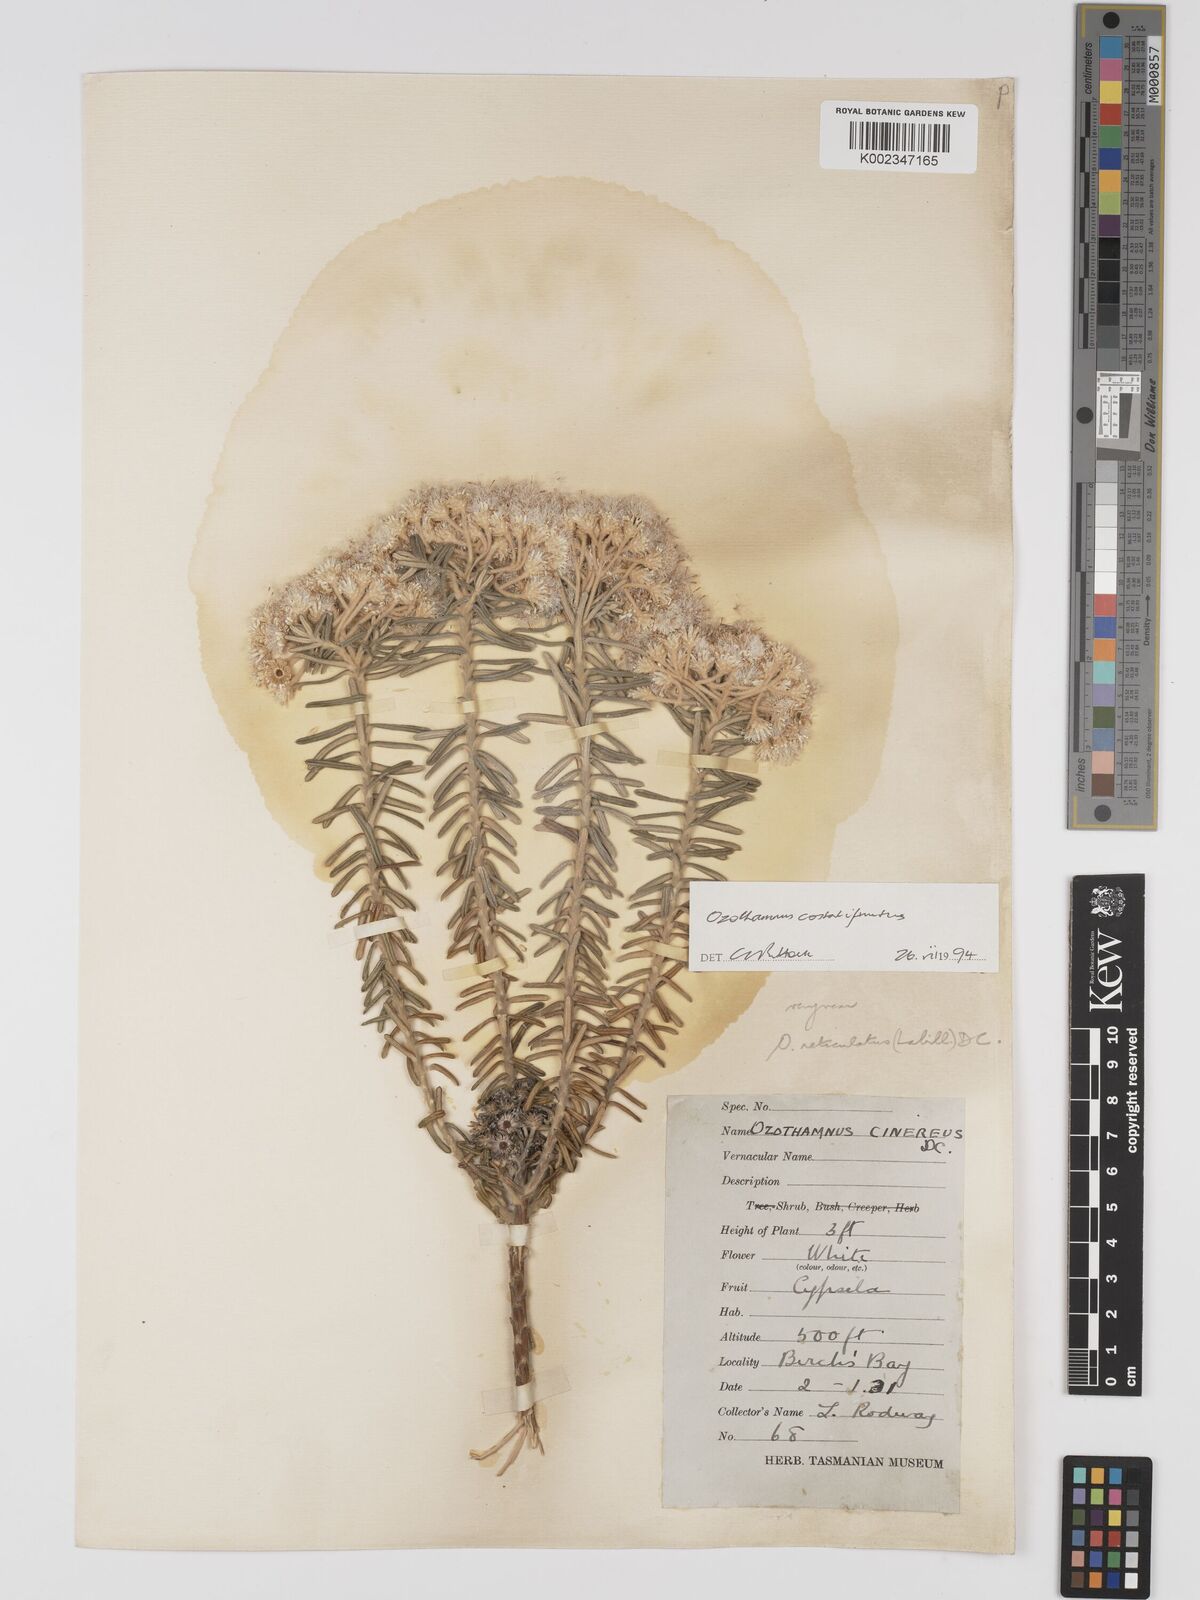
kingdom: Plantae
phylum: Tracheophyta
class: Magnoliopsida
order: Asterales
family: Asteraceae
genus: Ozothamnus
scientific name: Ozothamnus costatifructus
